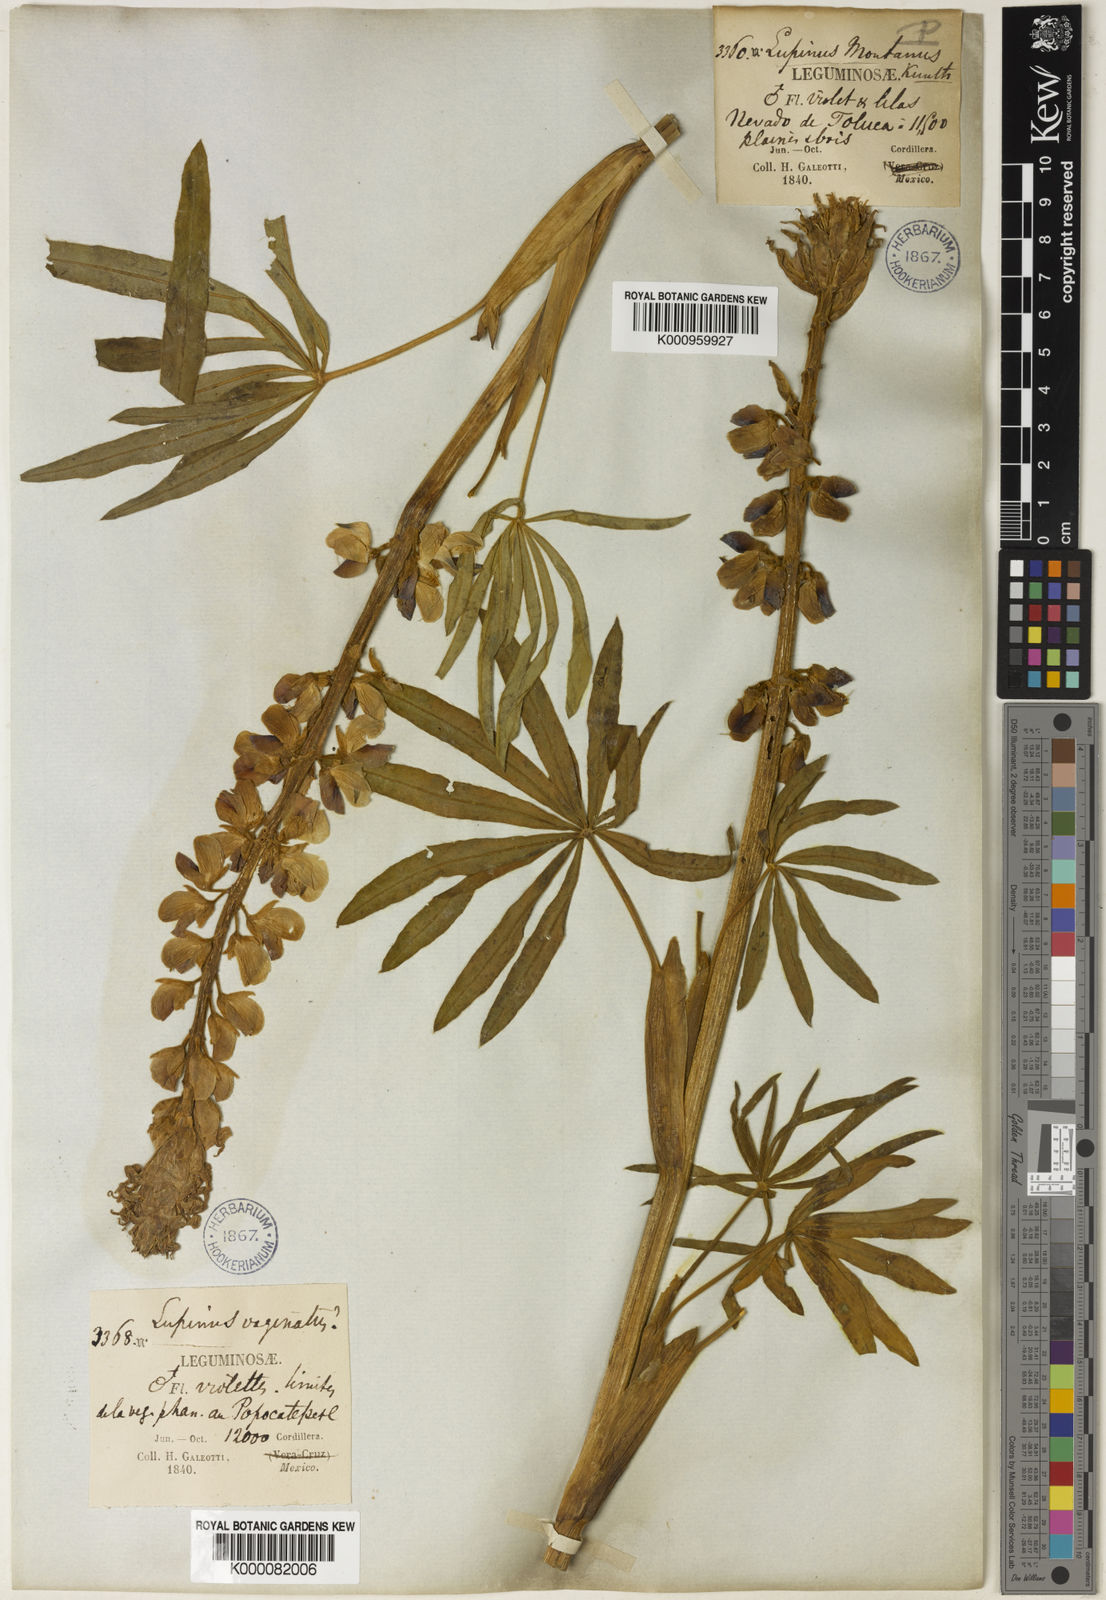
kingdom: Plantae
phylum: Tracheophyta
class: Magnoliopsida
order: Fabales
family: Fabaceae
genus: Lupinus
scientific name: Lupinus montanus
